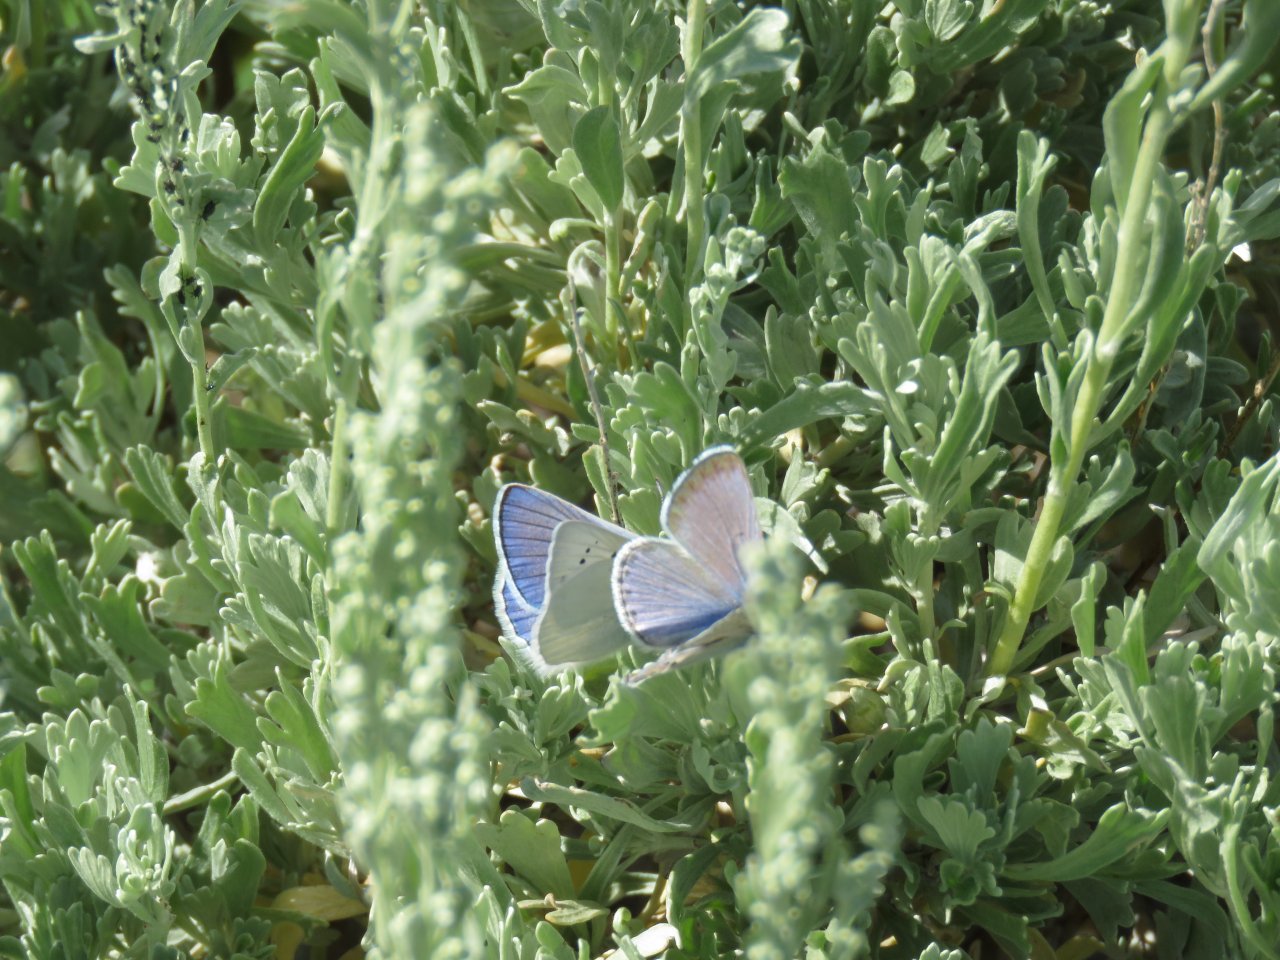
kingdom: Animalia
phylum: Arthropoda
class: Insecta
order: Lepidoptera
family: Lycaenidae
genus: Icaricia
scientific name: Icaricia icarioides
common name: Boisduval's Blue
